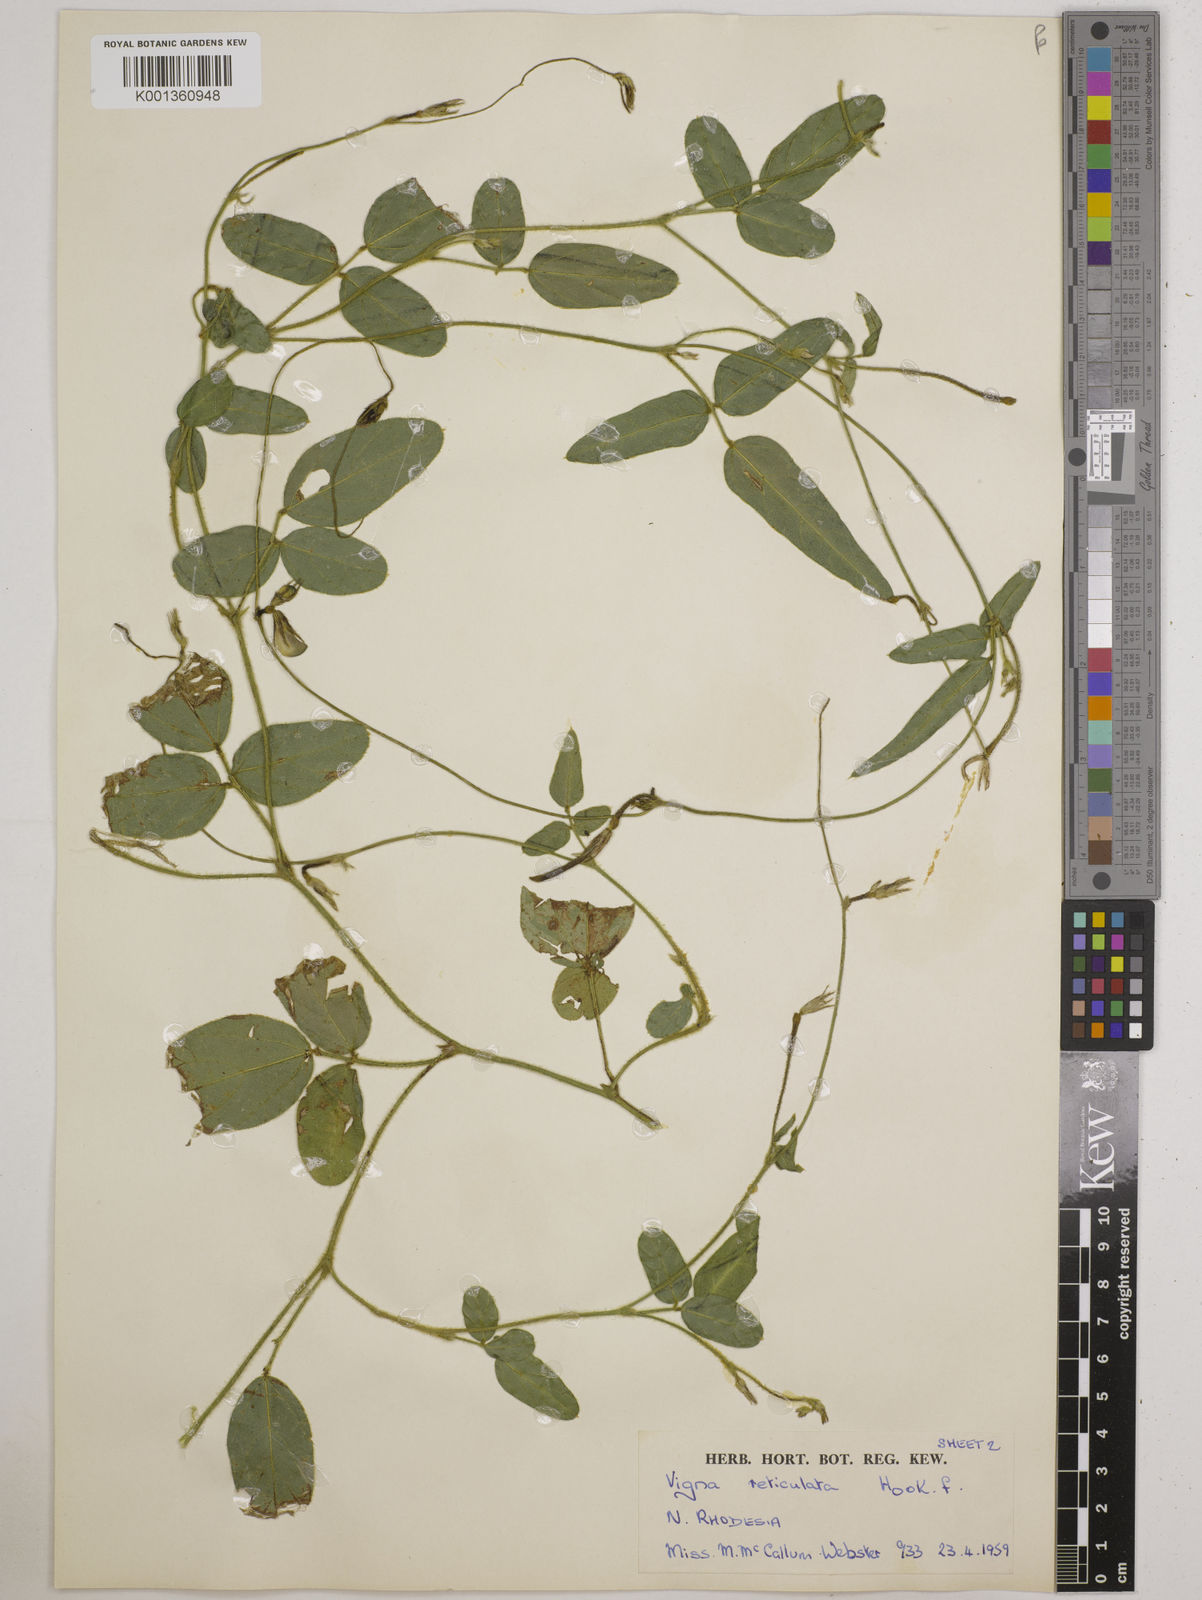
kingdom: Plantae
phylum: Tracheophyta
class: Magnoliopsida
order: Fabales
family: Fabaceae
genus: Vigna
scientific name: Vigna reticulata
